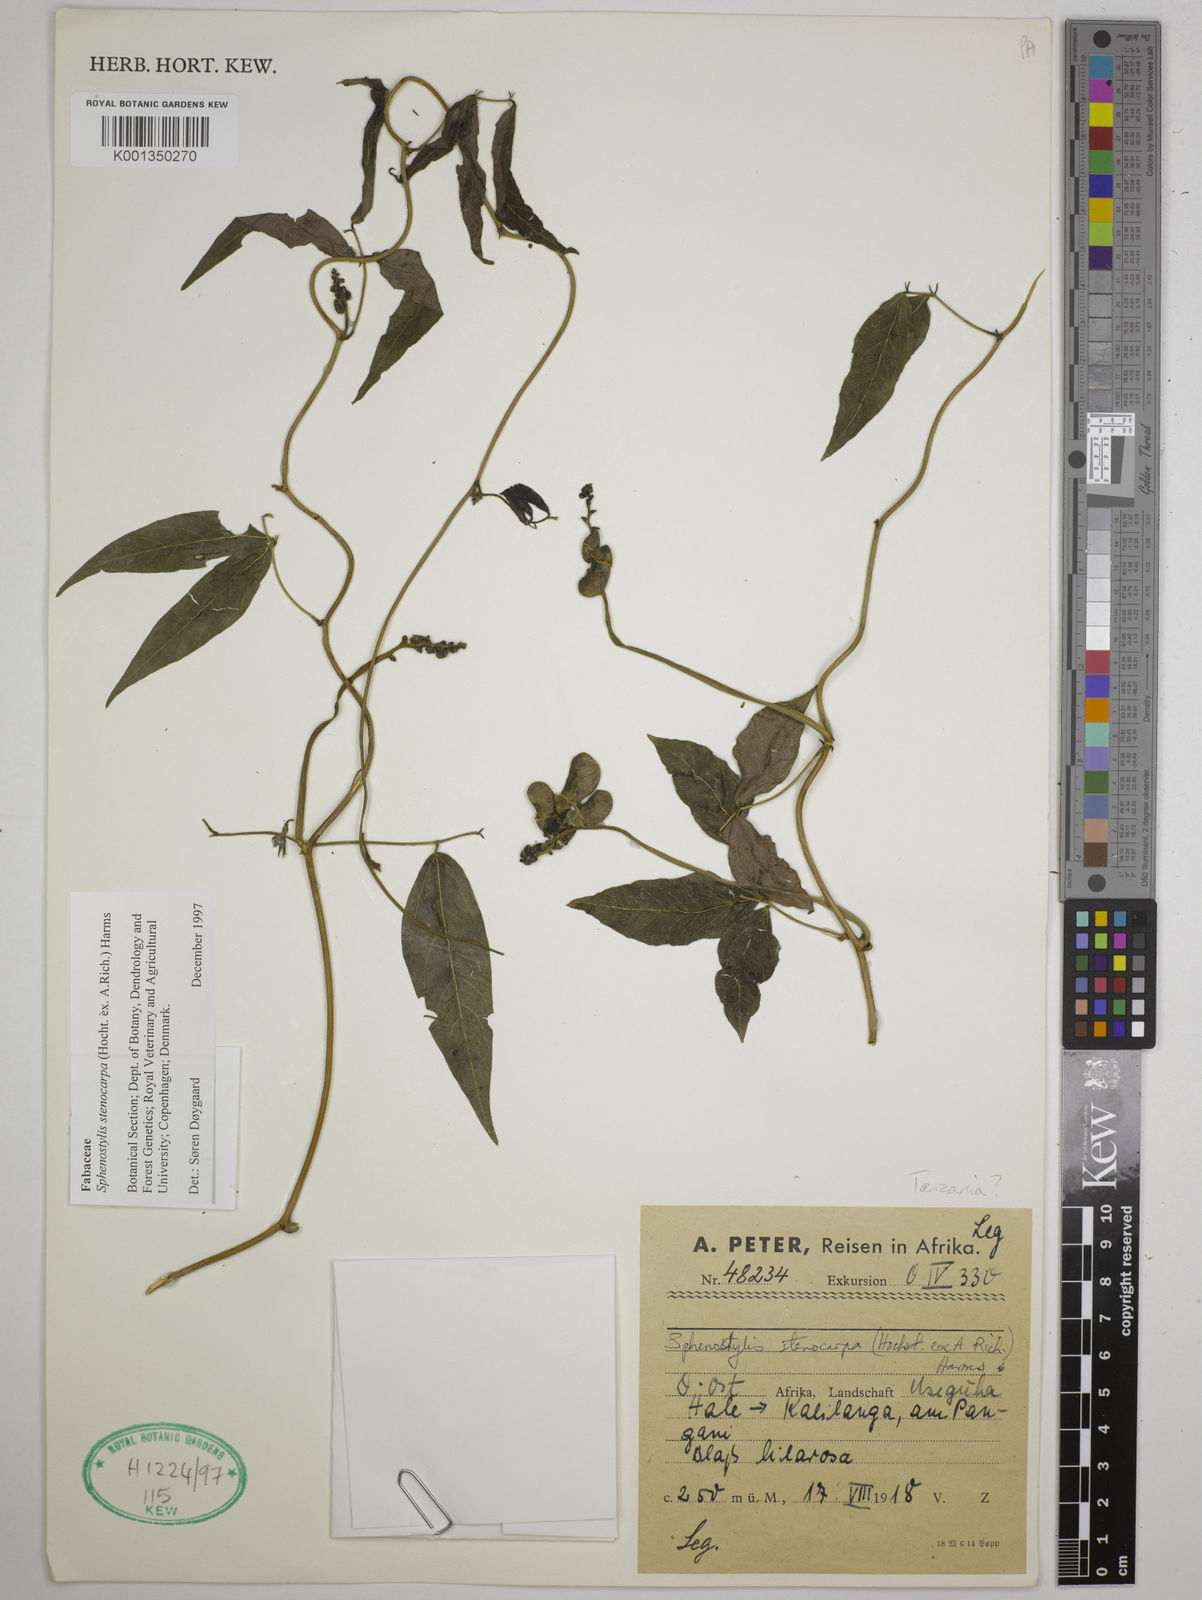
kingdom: Plantae
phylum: Tracheophyta
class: Magnoliopsida
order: Fabales
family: Fabaceae
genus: Sphenostylis
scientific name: Sphenostylis stenocarpa
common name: Yam-pea
